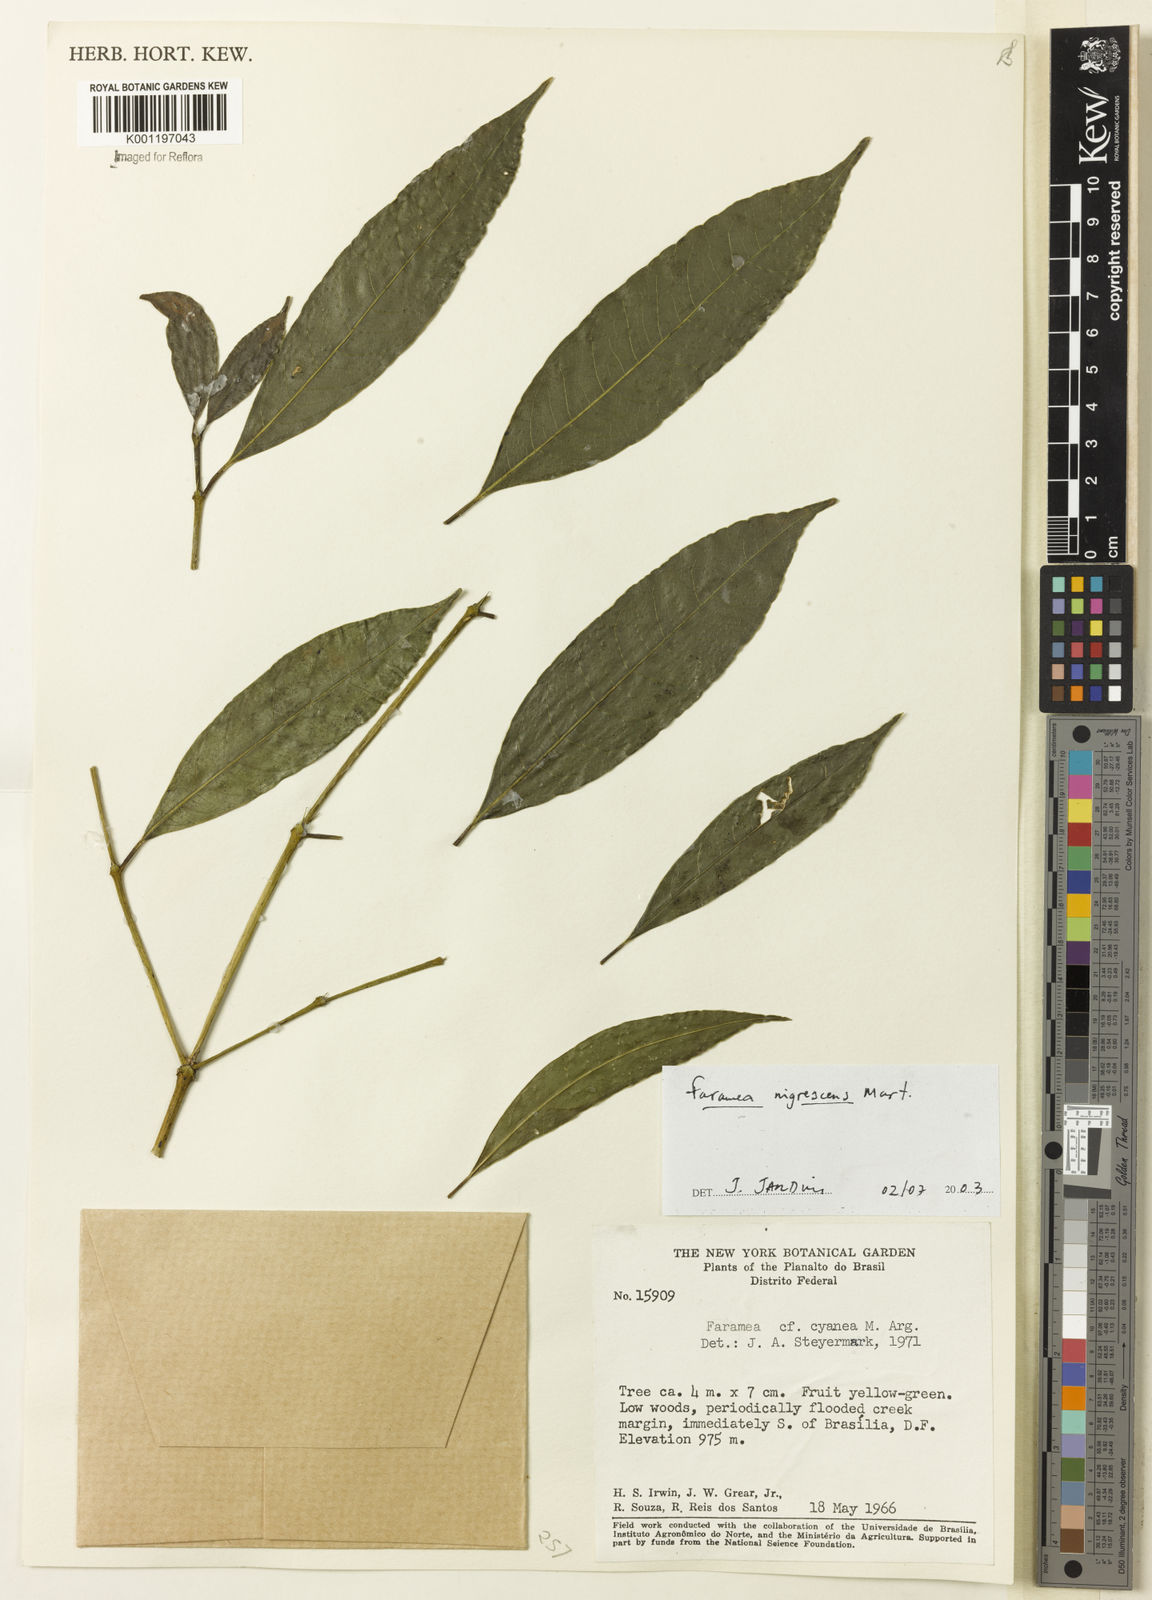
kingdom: Plantae
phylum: Tracheophyta
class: Magnoliopsida
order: Gentianales
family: Rubiaceae
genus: Faramea
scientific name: Faramea nigrescens
